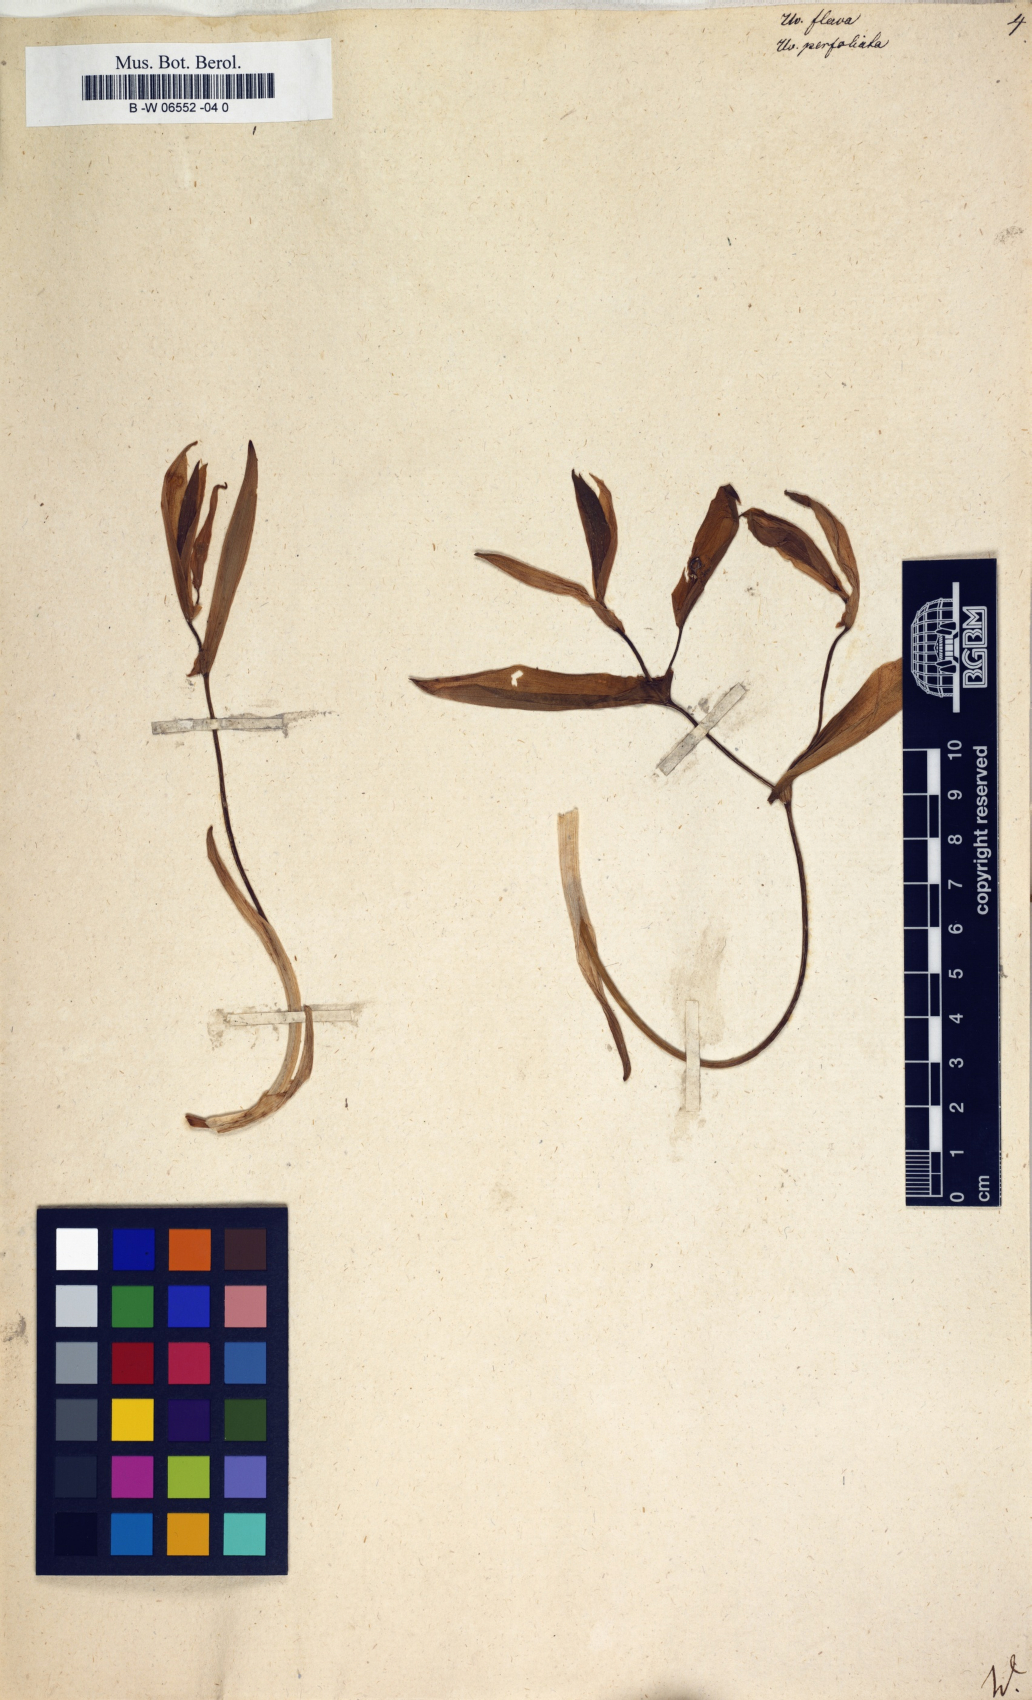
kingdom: Plantae
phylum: Tracheophyta
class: Liliopsida
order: Liliales
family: Colchicaceae
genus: Uvularia
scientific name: Uvularia perfoliata
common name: Perfoliate bellwort
